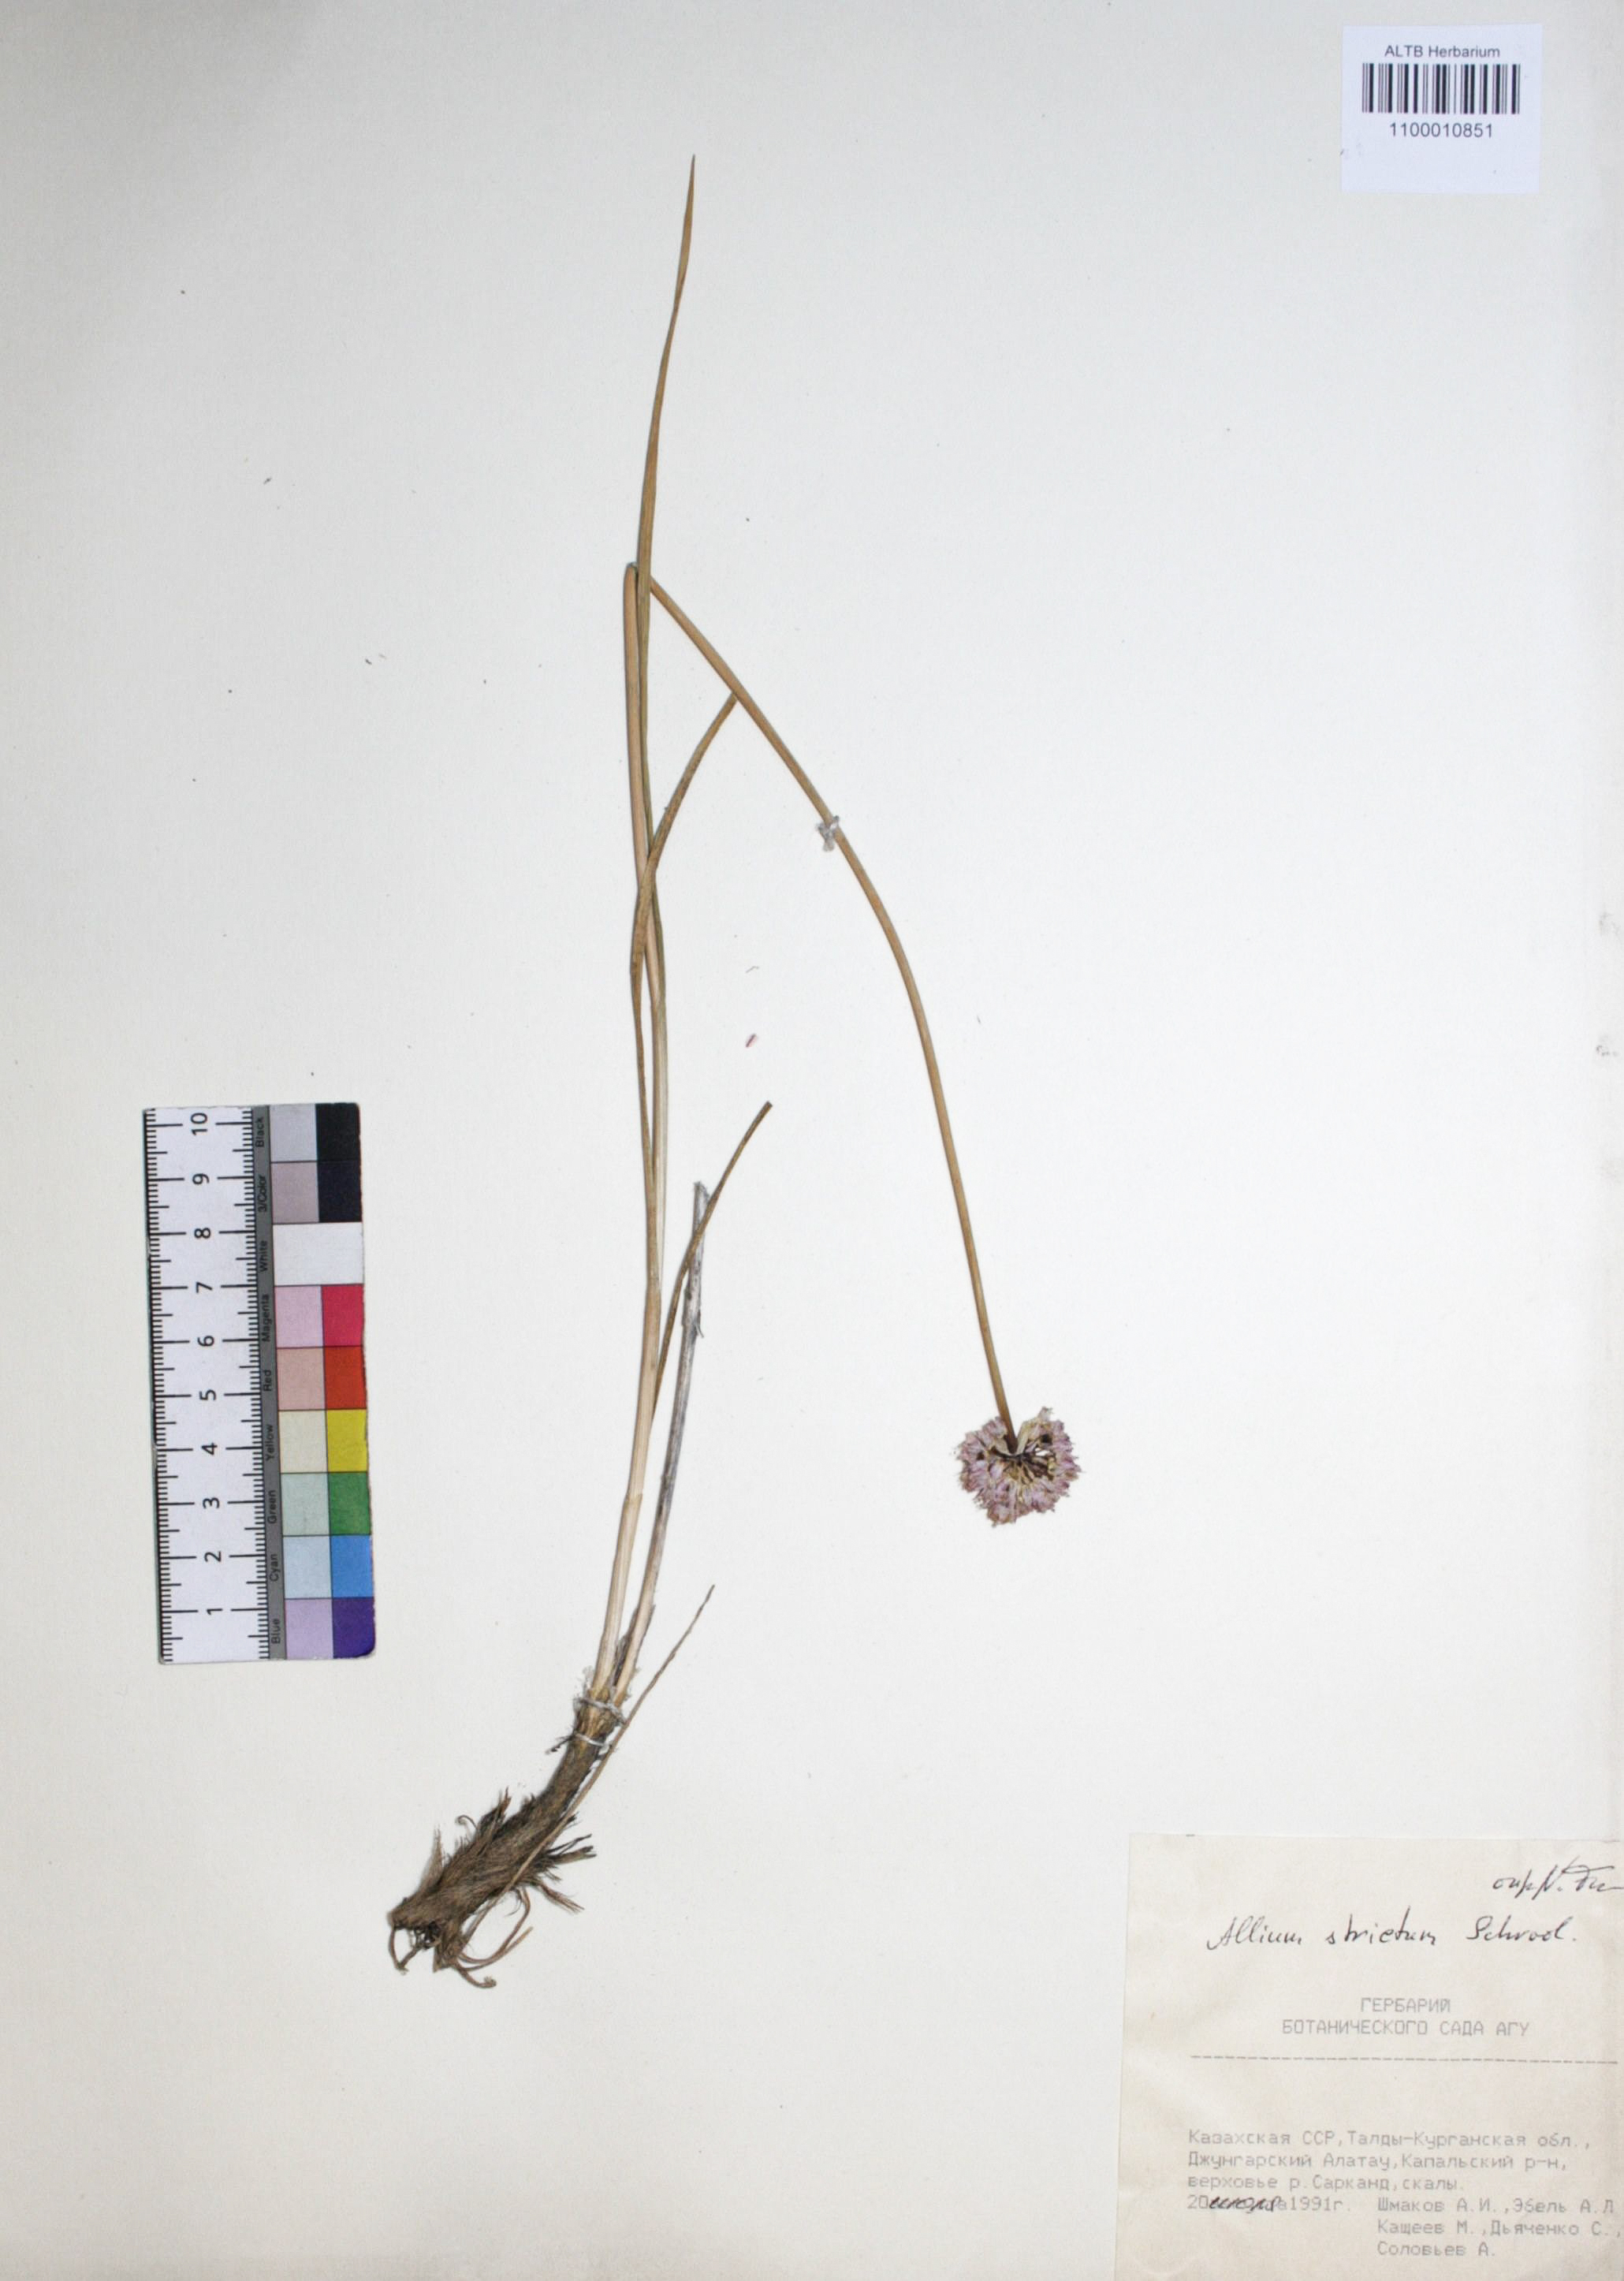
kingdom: Plantae
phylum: Tracheophyta
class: Liliopsida
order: Asparagales
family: Amaryllidaceae
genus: Allium
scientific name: Allium strictum
